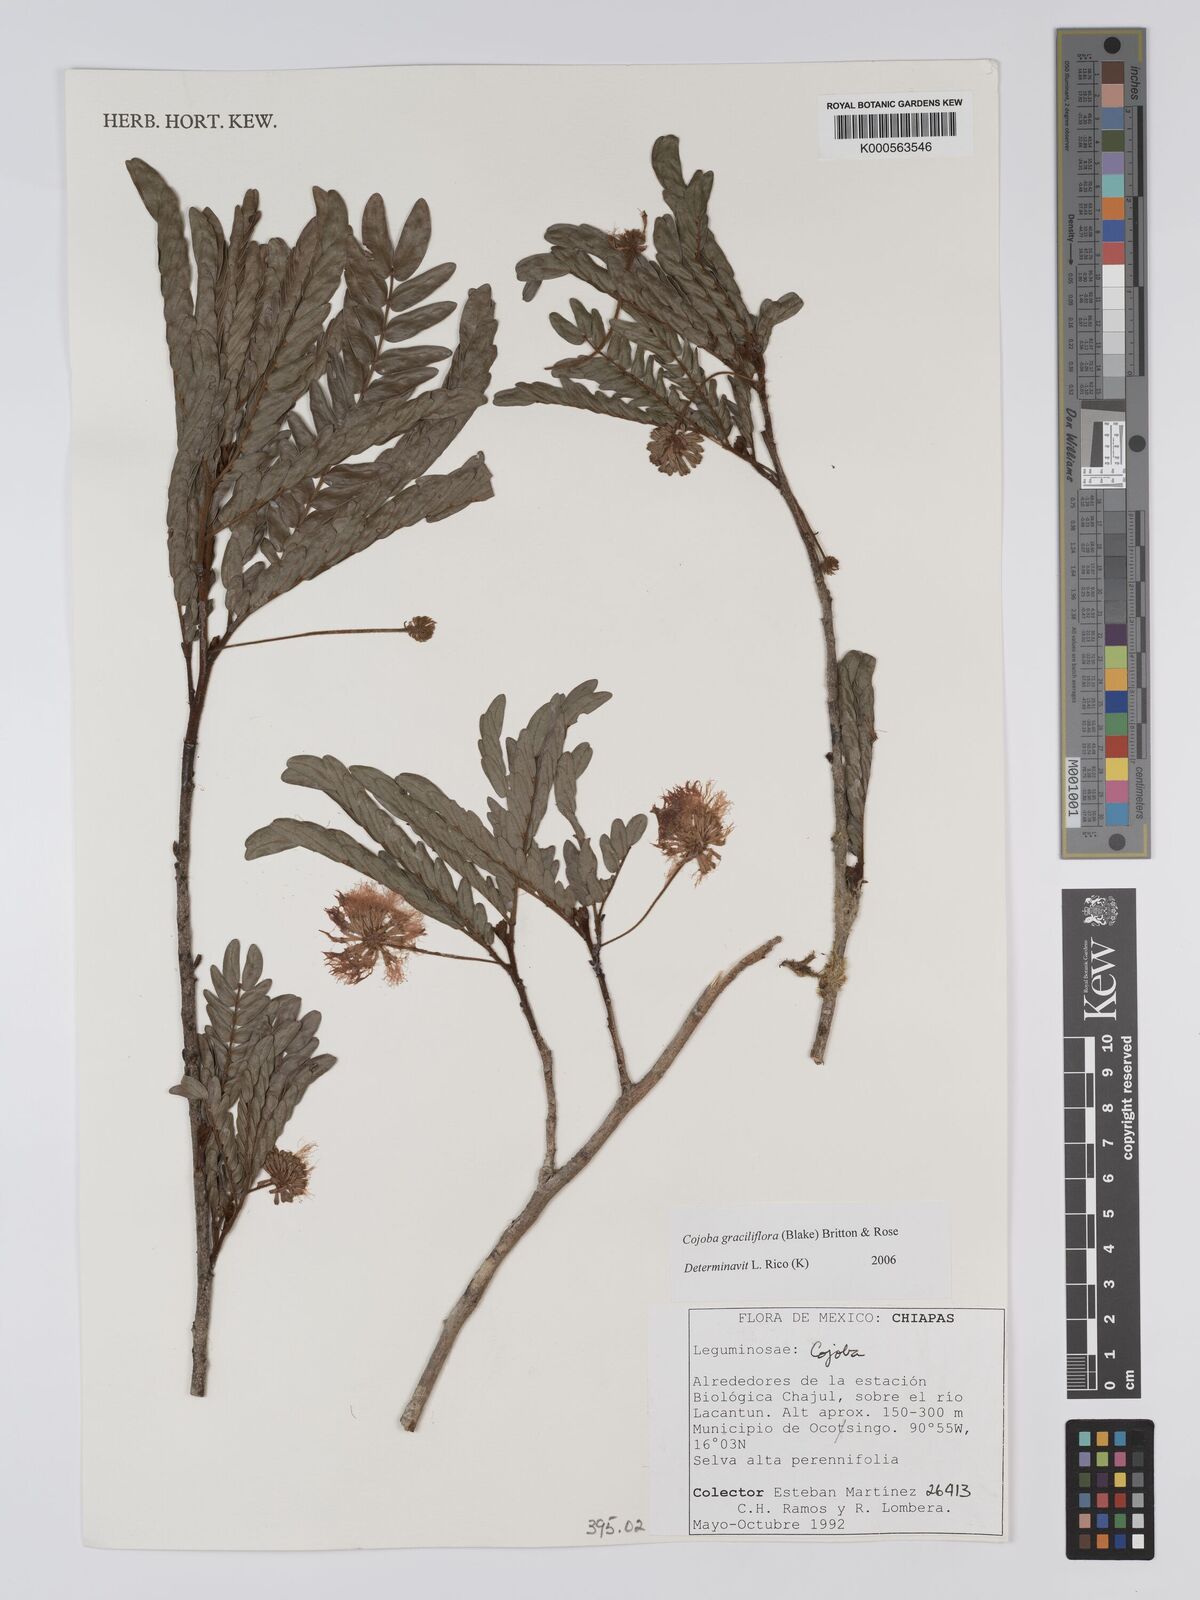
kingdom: Plantae
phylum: Tracheophyta
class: Magnoliopsida
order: Fabales
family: Fabaceae
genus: Cojoba
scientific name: Cojoba graciliflora
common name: Guadeloupe blackbead
